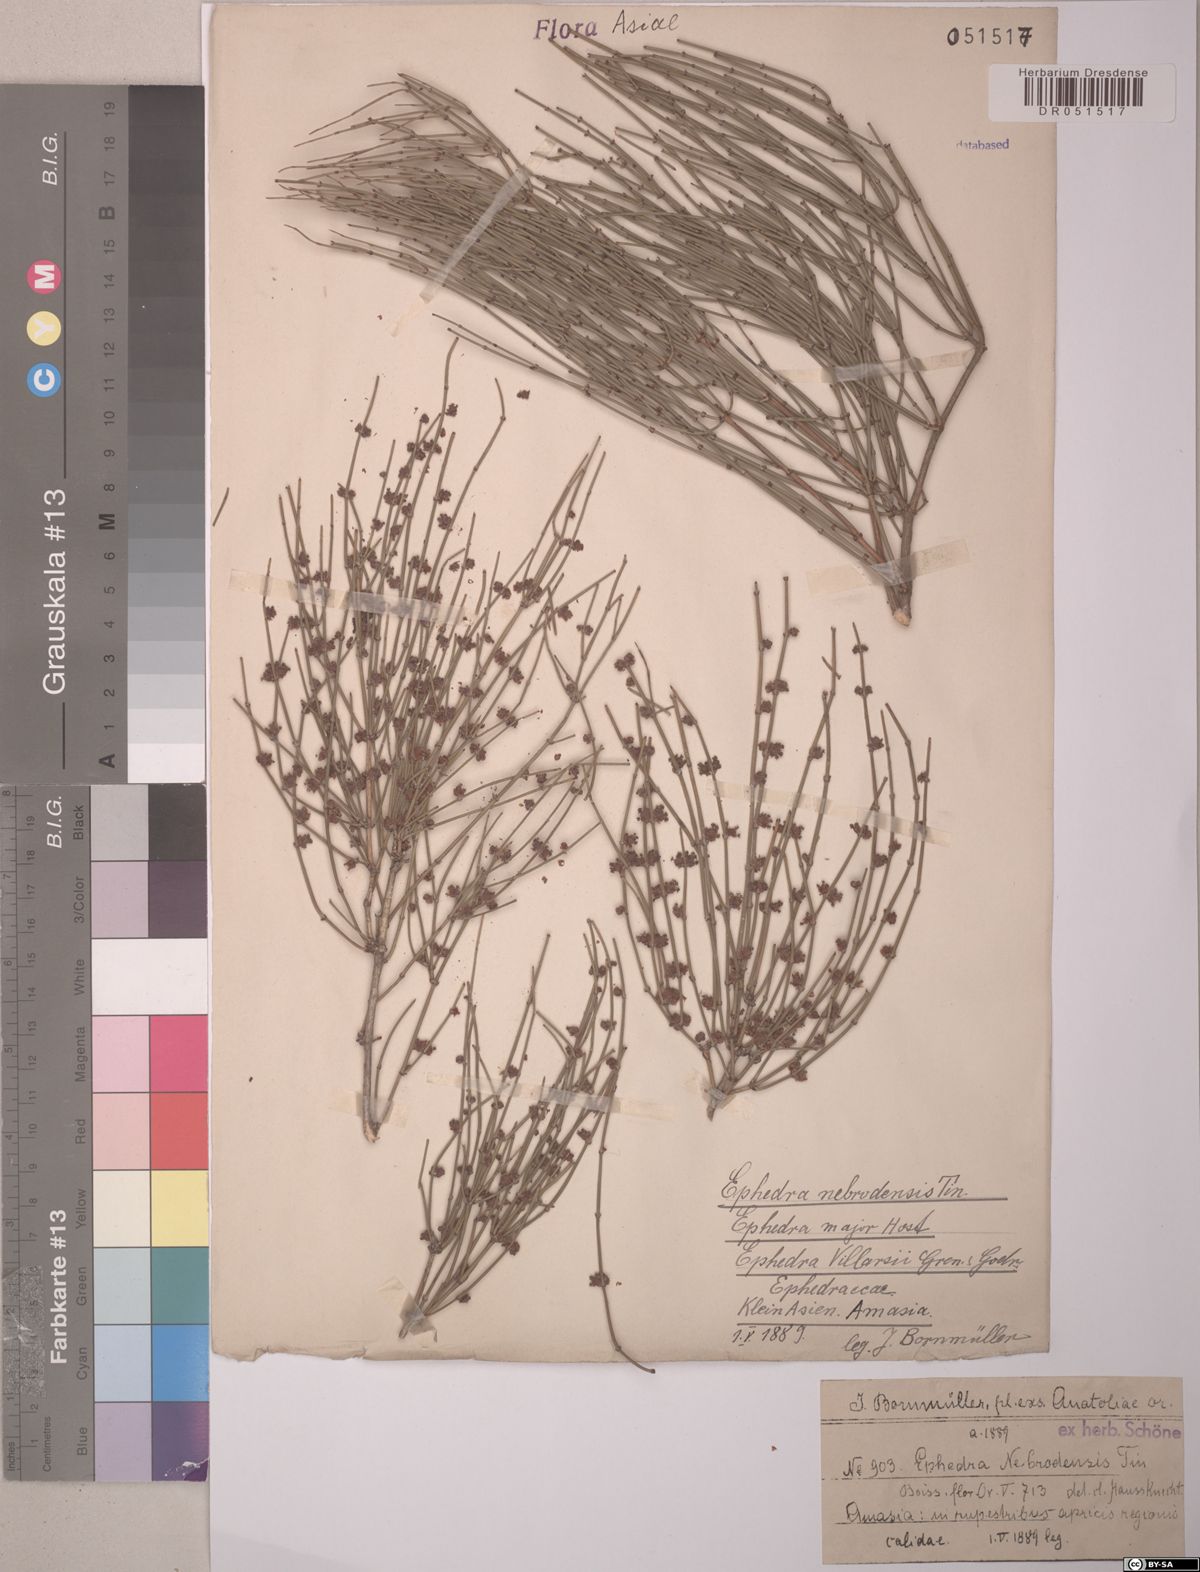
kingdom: Plantae
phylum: Tracheophyta
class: Gnetopsida
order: Ephedrales
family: Ephedraceae
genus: Ephedra
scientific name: Ephedra foeminea
